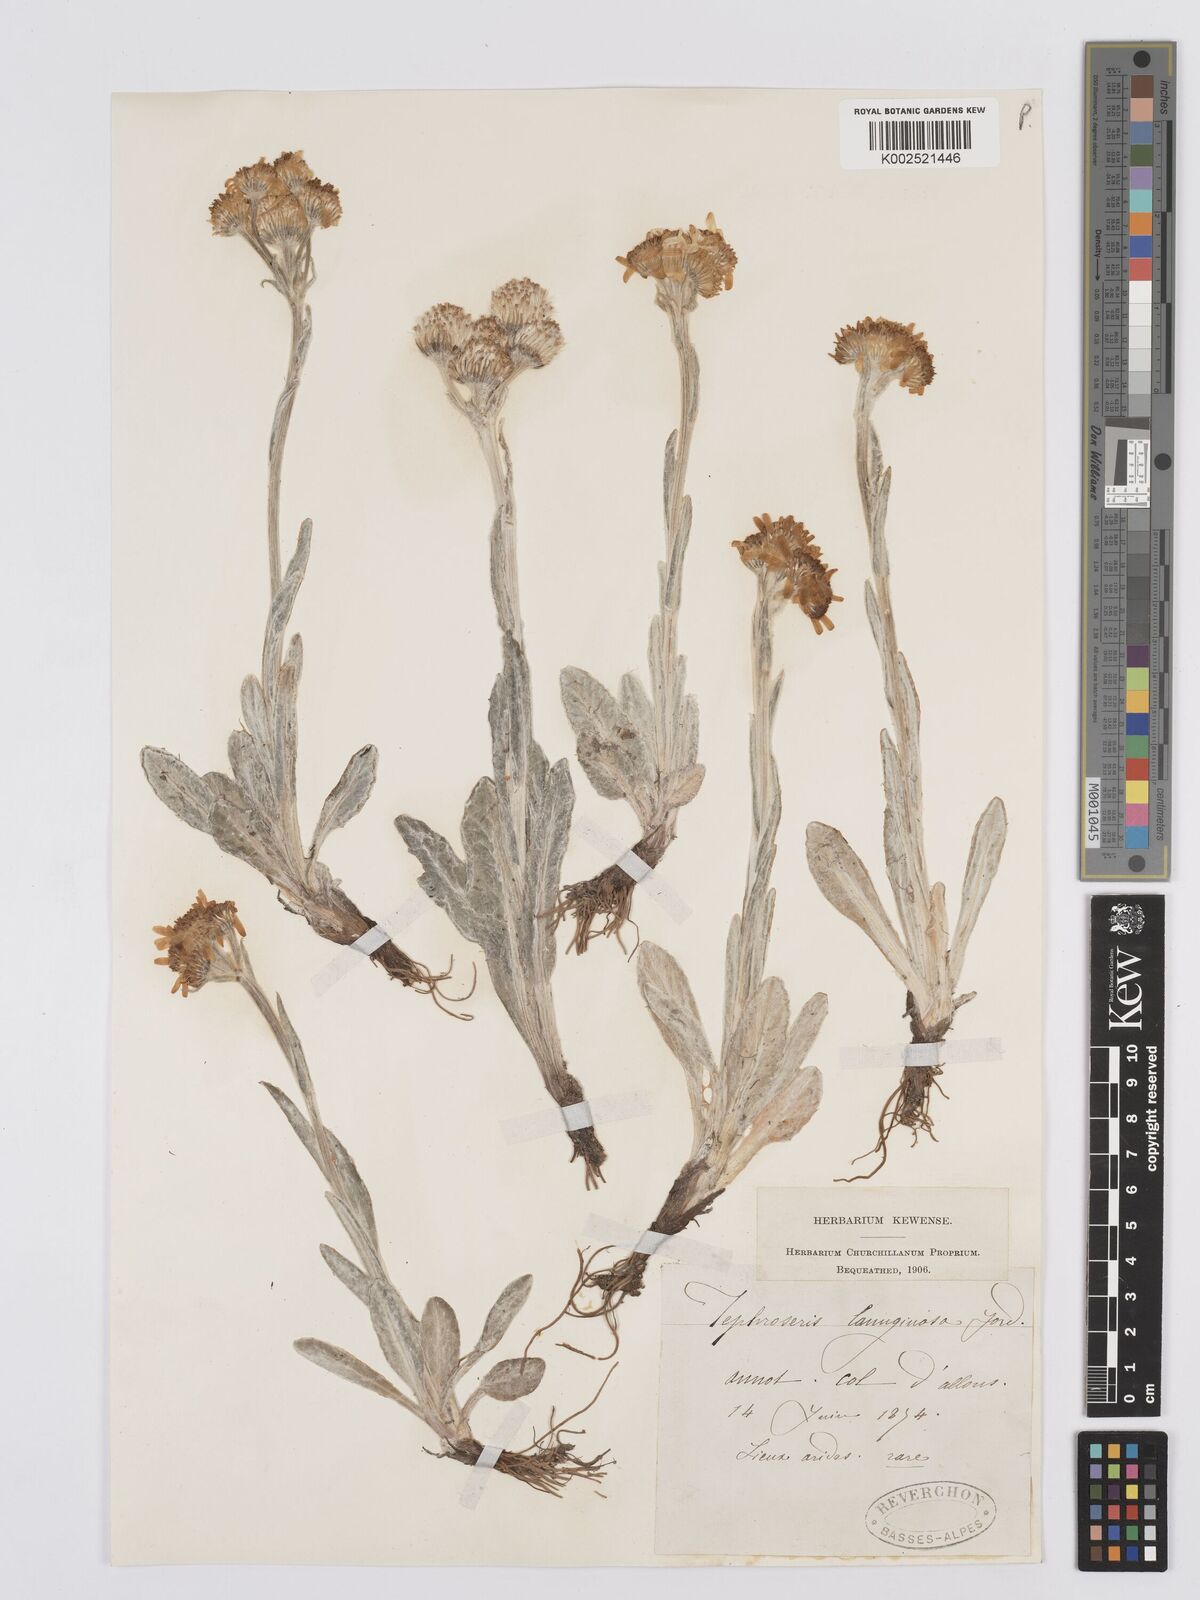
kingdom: Plantae
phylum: Tracheophyta
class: Magnoliopsida
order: Asterales
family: Asteraceae
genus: Tephroseris
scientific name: Tephroseris integrifolia
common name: Field fleawort
